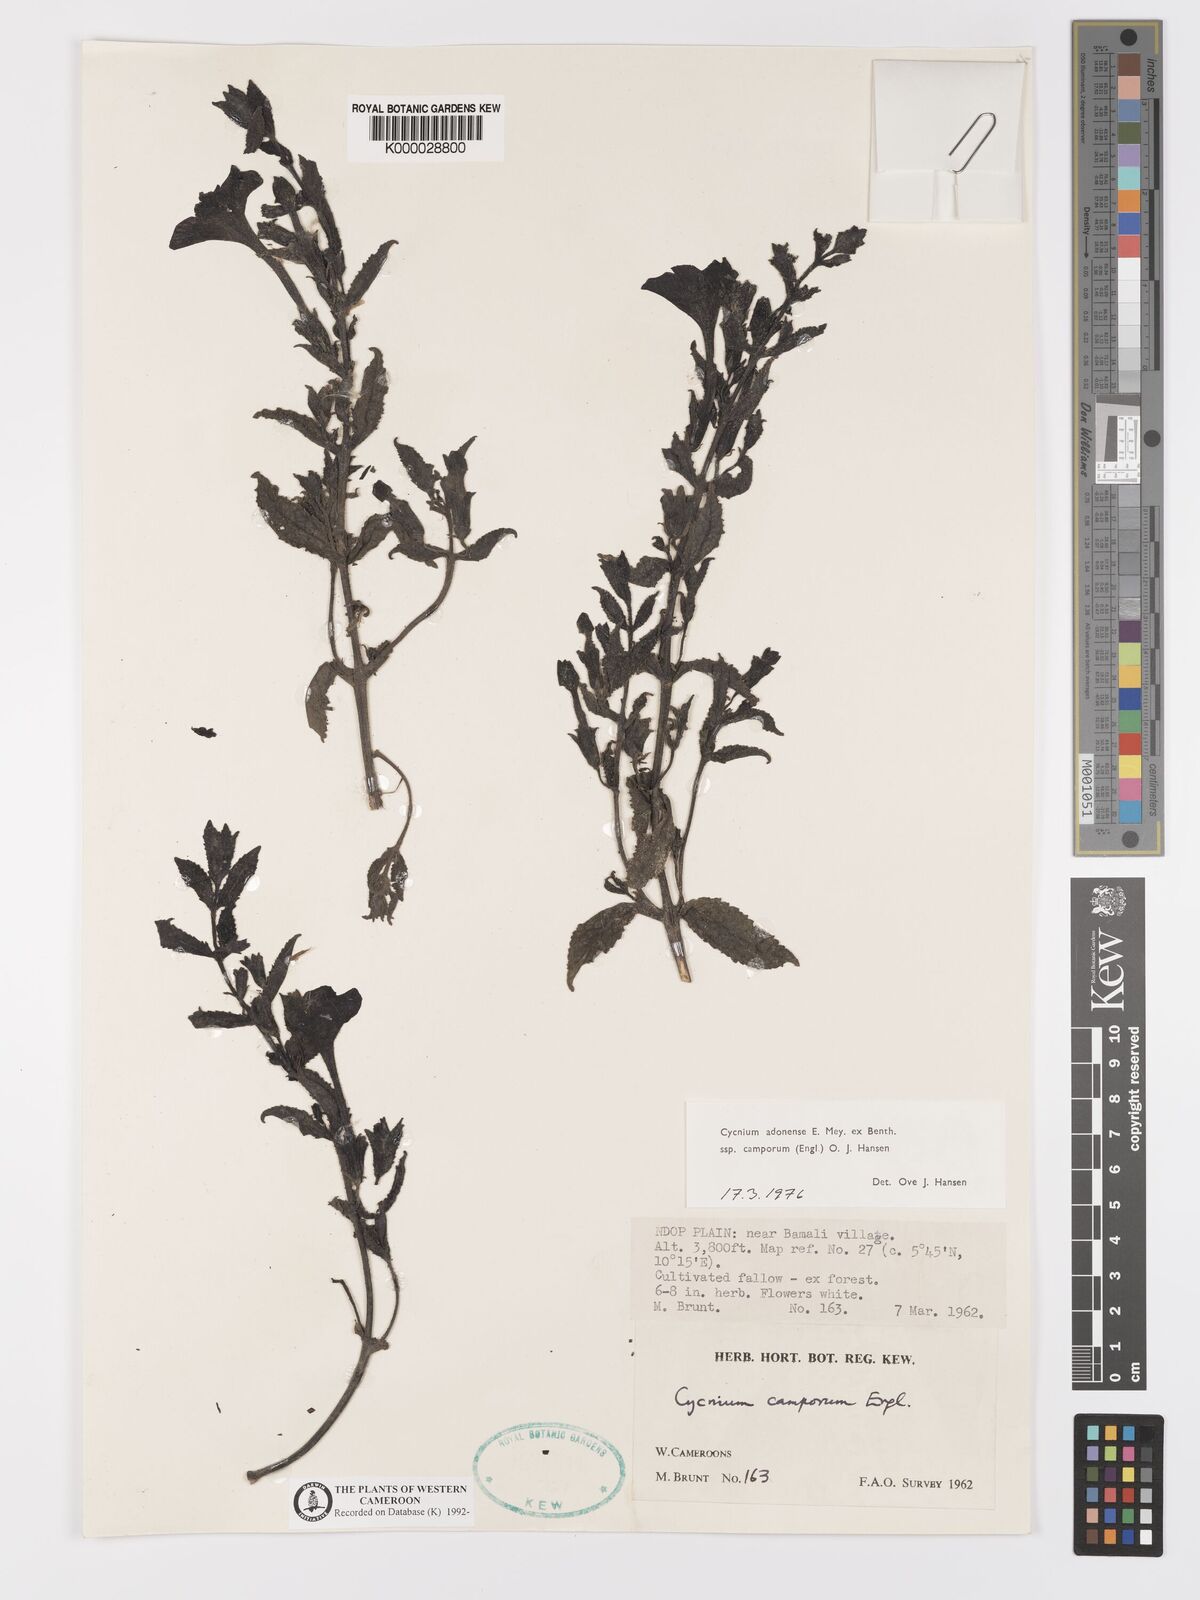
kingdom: Plantae
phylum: Tracheophyta
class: Magnoliopsida
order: Lamiales
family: Orobanchaceae
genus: Cycnium
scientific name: Cycnium adoense
